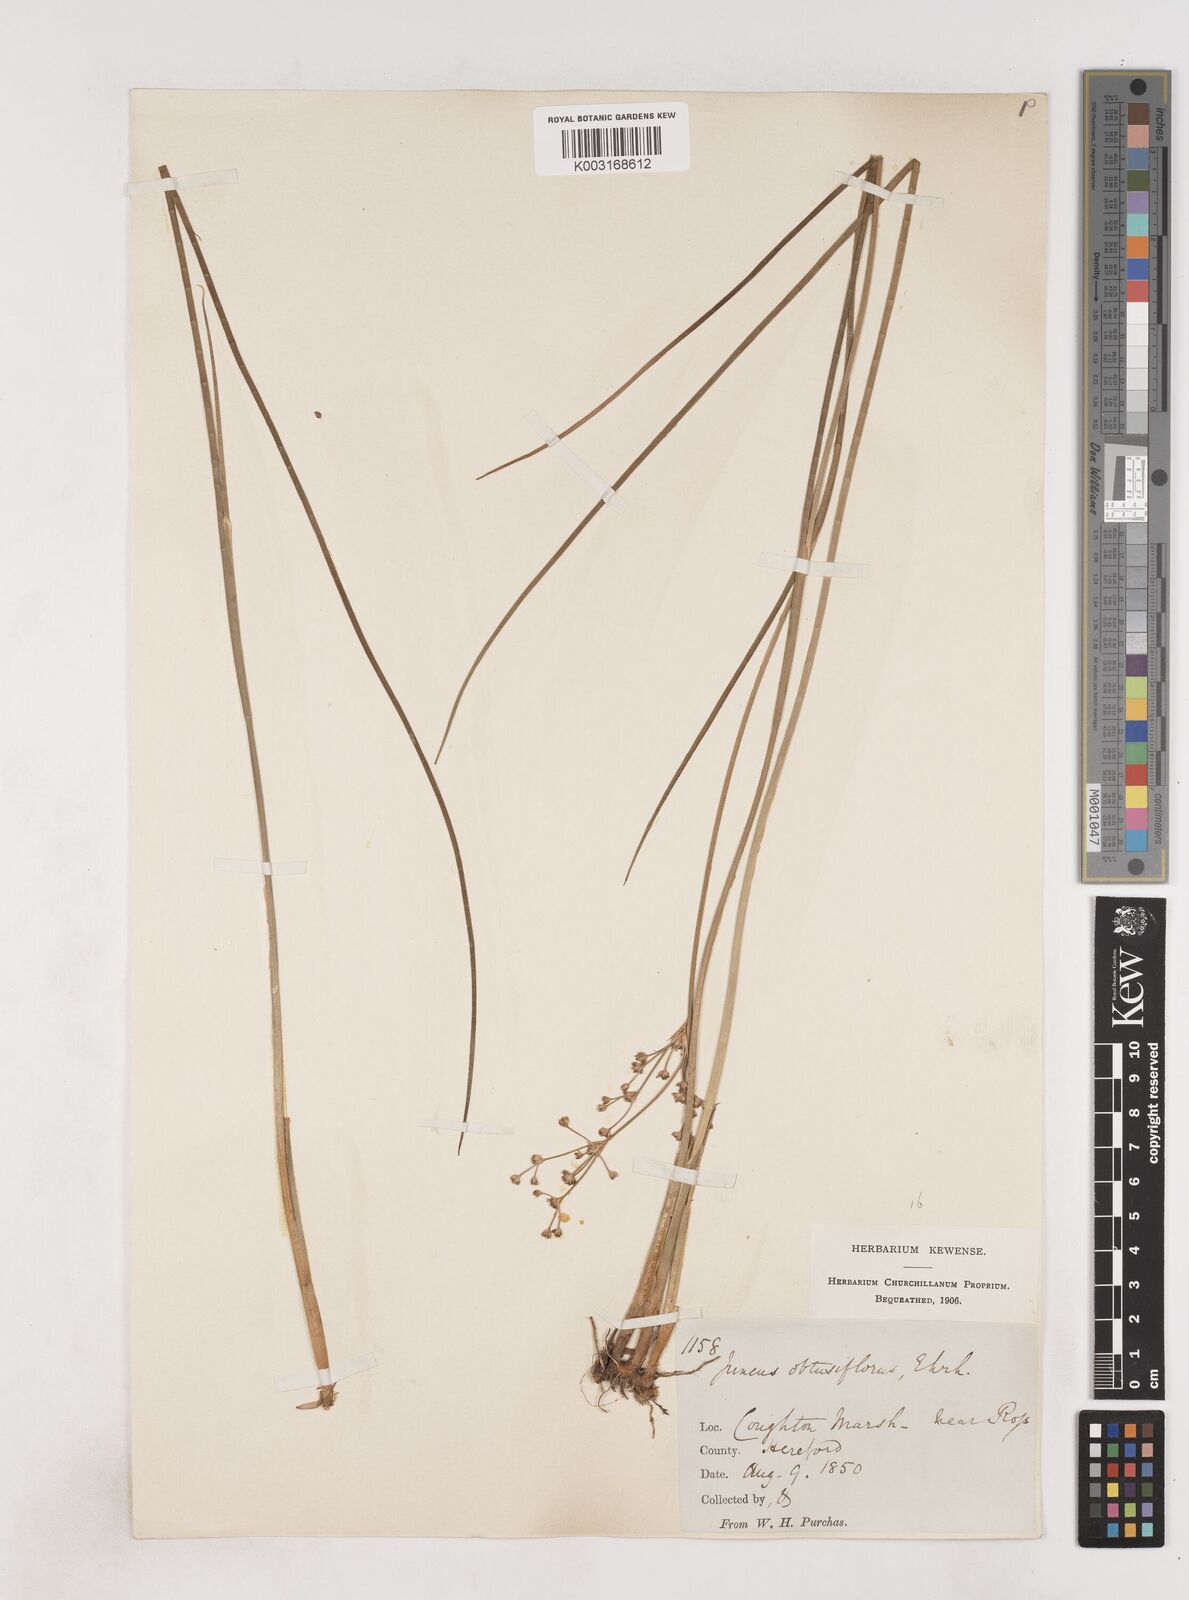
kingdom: Plantae
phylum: Tracheophyta
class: Liliopsida
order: Poales
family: Juncaceae
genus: Juncus
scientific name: Juncus subnodulosus
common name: Blunt-flowered rush
